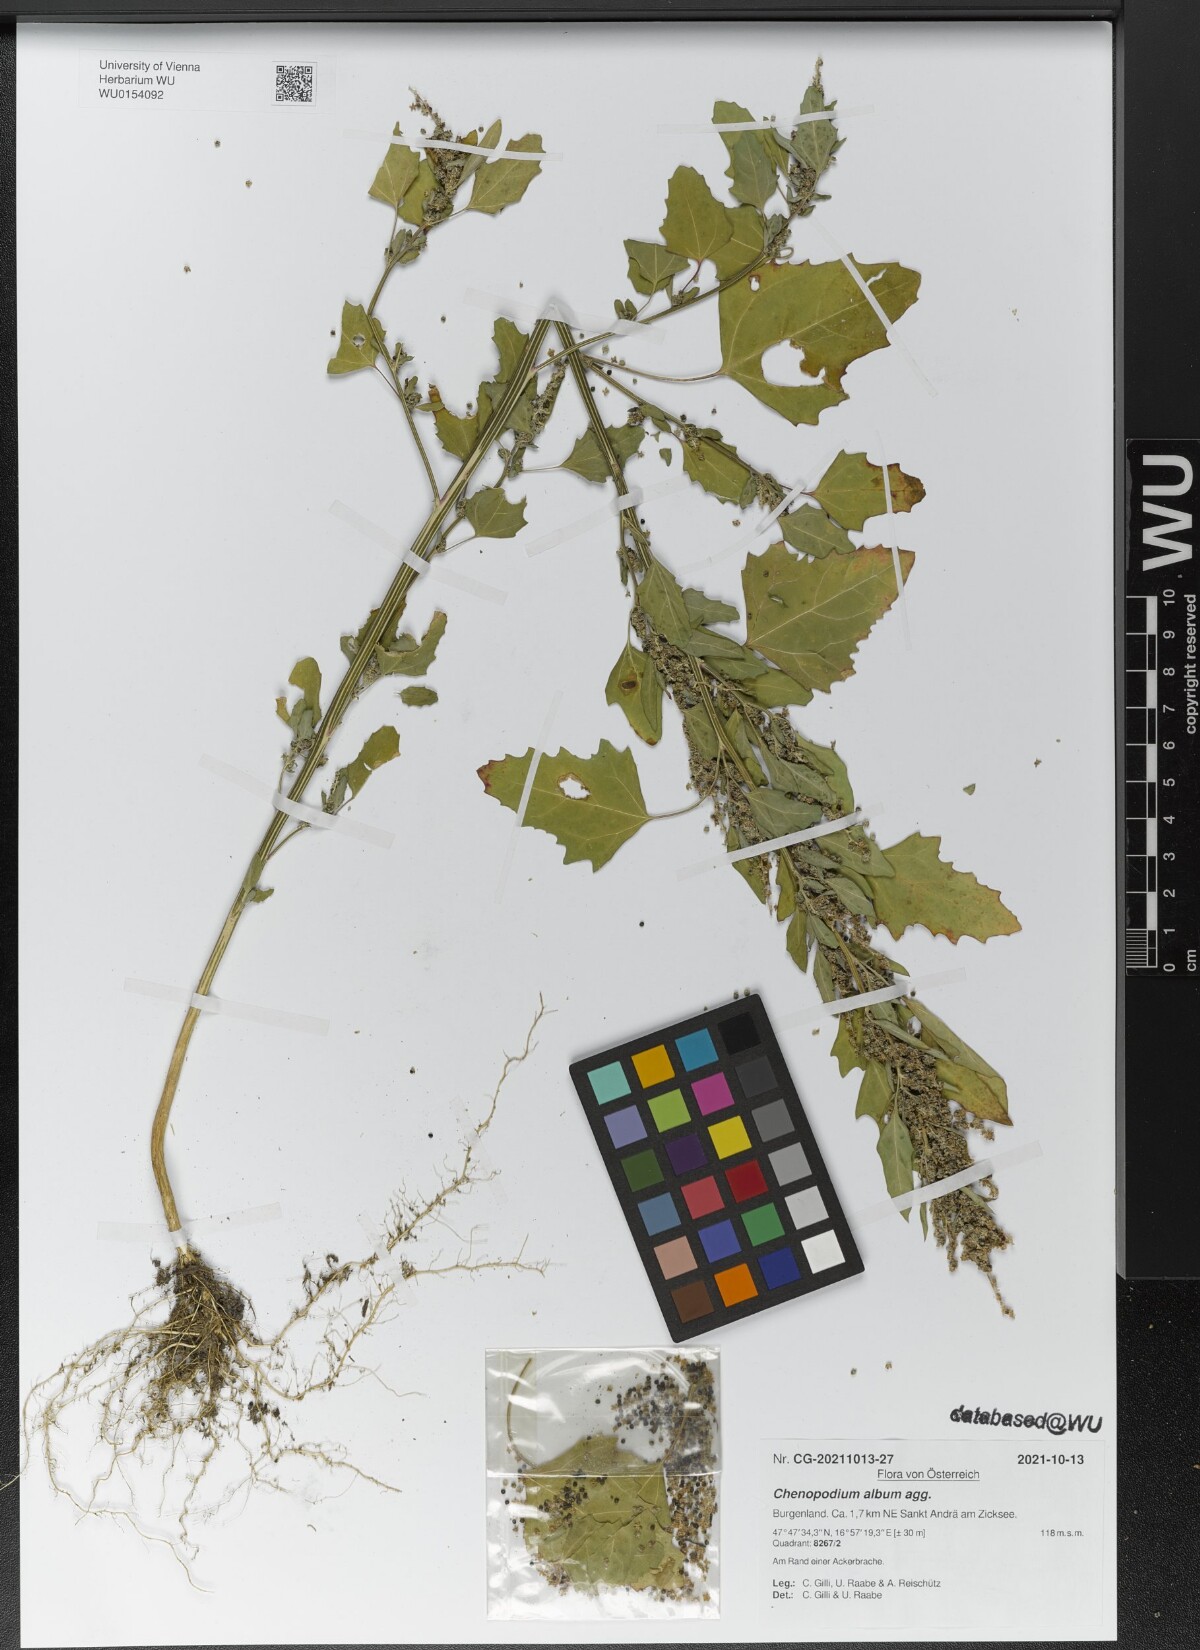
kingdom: Plantae
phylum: Tracheophyta
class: Magnoliopsida
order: Caryophyllales
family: Amaranthaceae
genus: Chenopodium
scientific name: Chenopodium album
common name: Fat-hen
